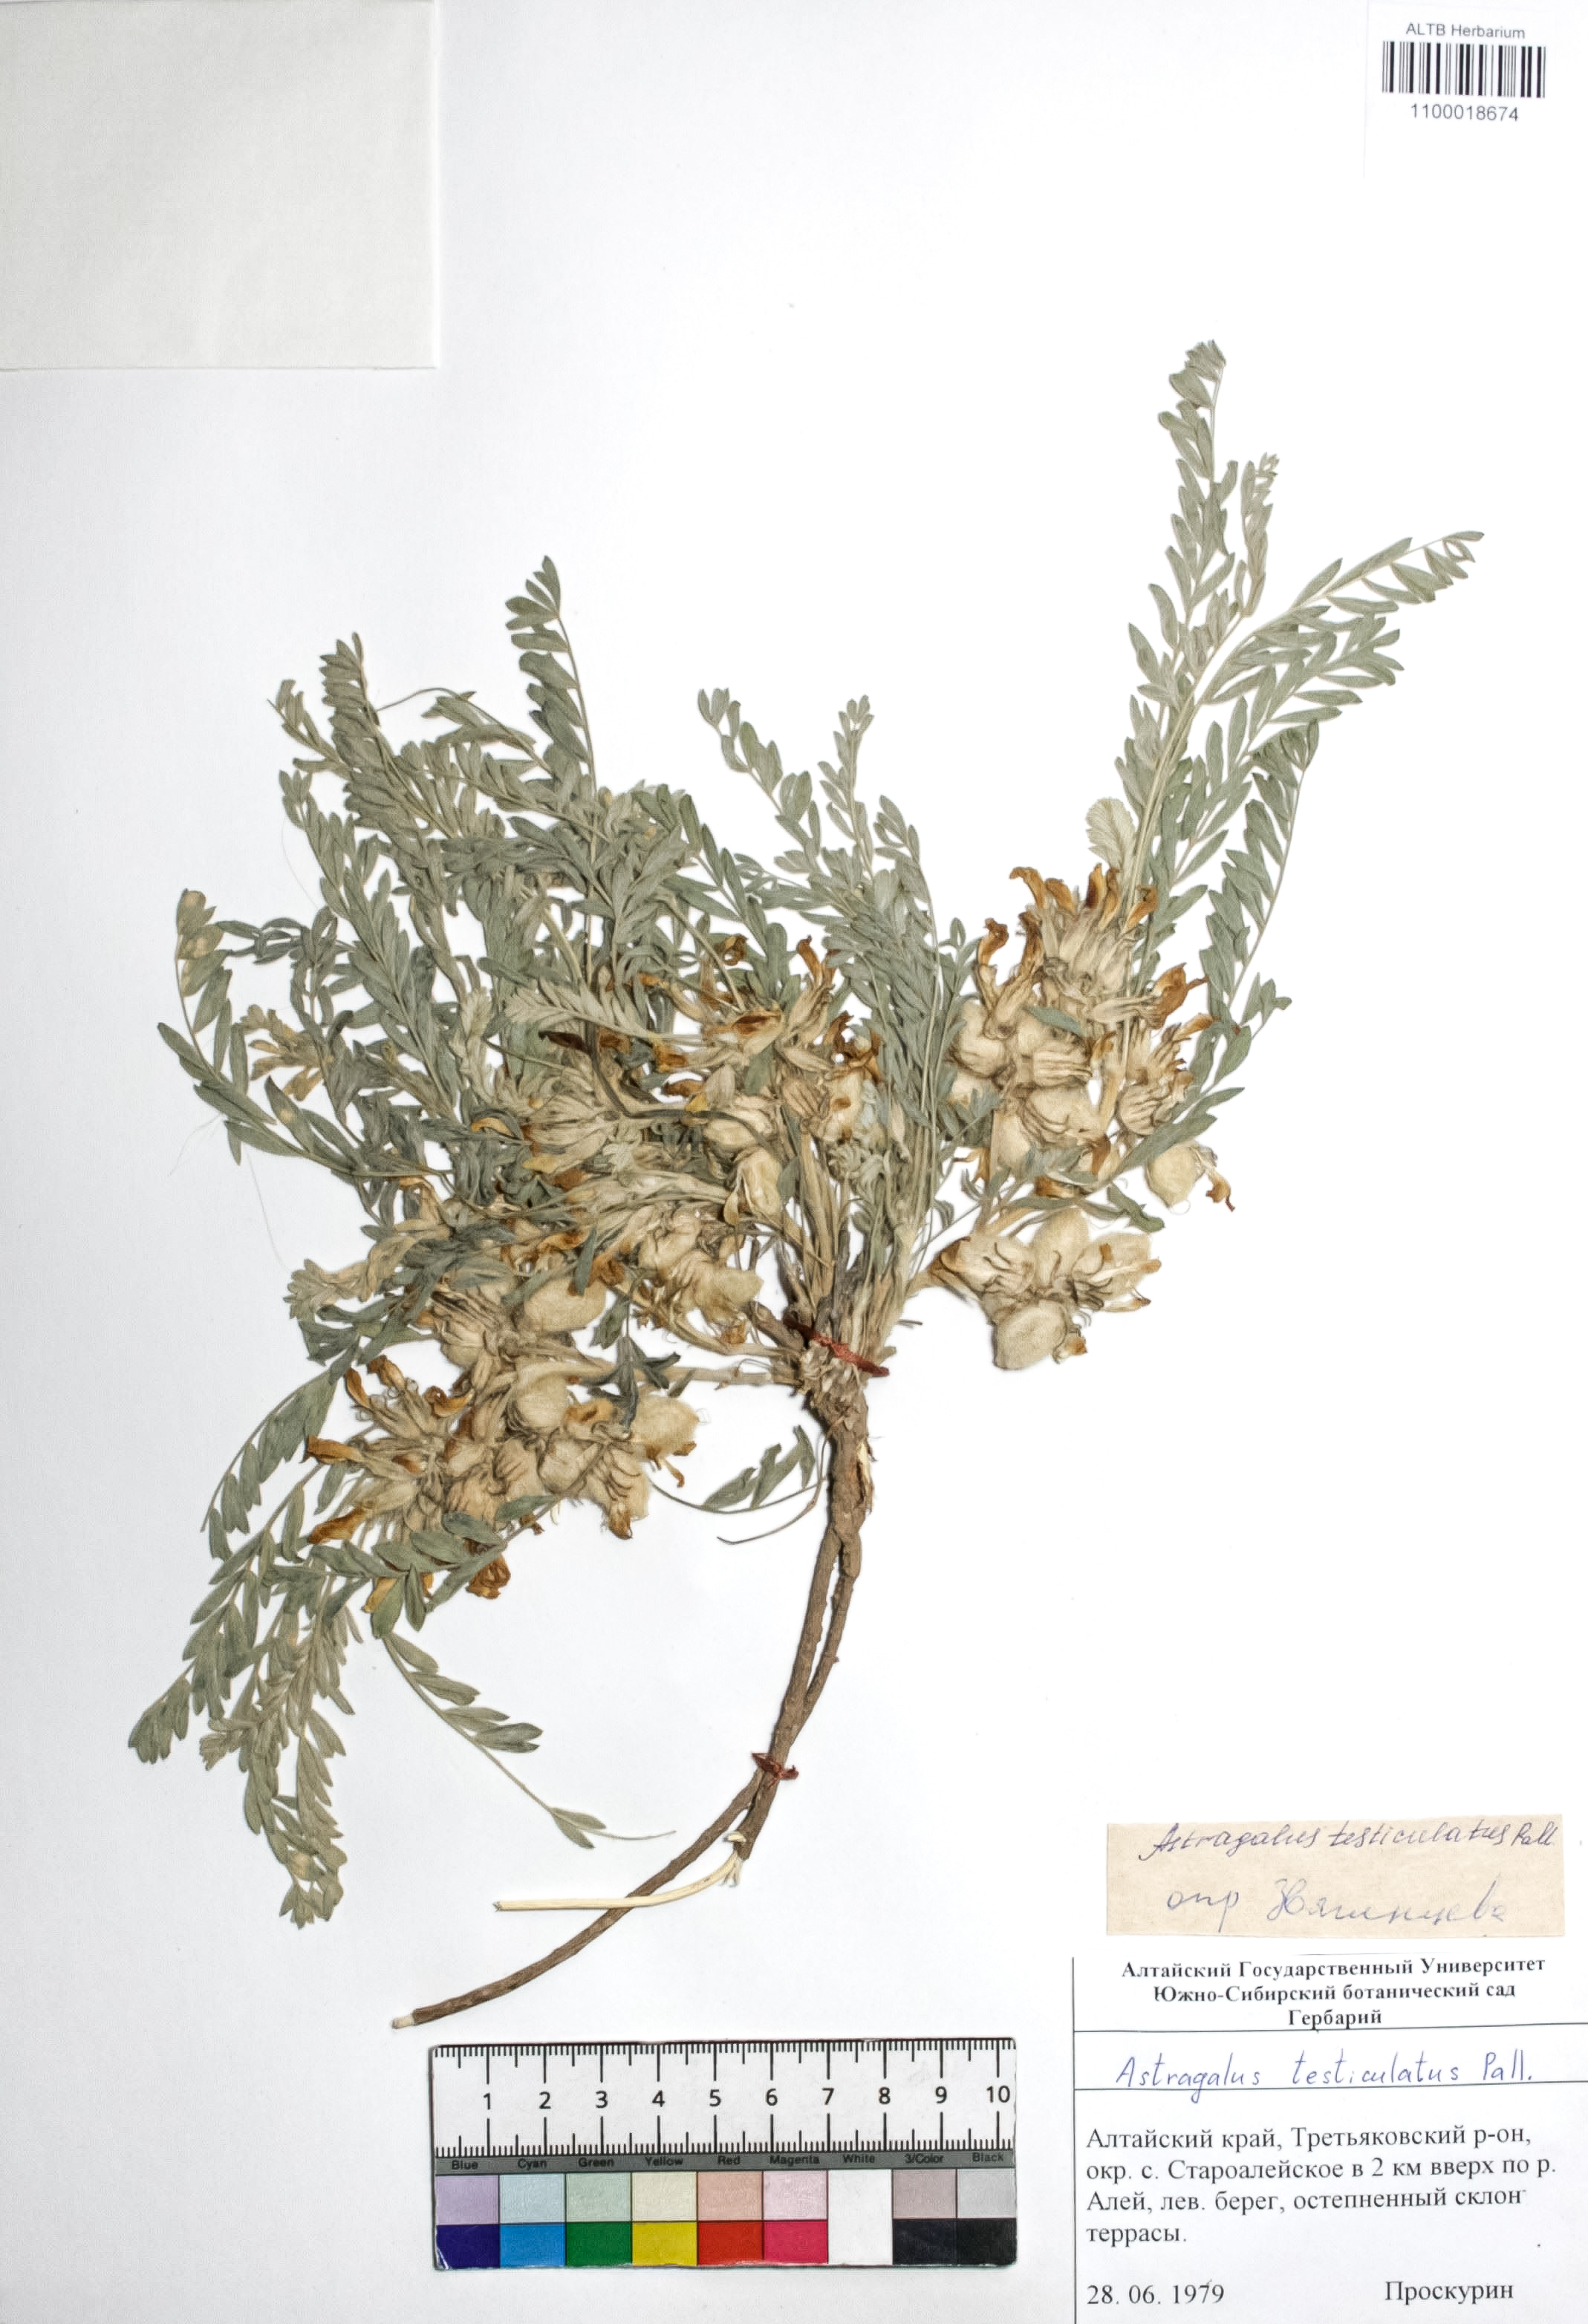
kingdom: Plantae
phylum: Tracheophyta
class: Magnoliopsida
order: Fabales
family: Fabaceae
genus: Astragalus
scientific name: Astragalus testiculatus
